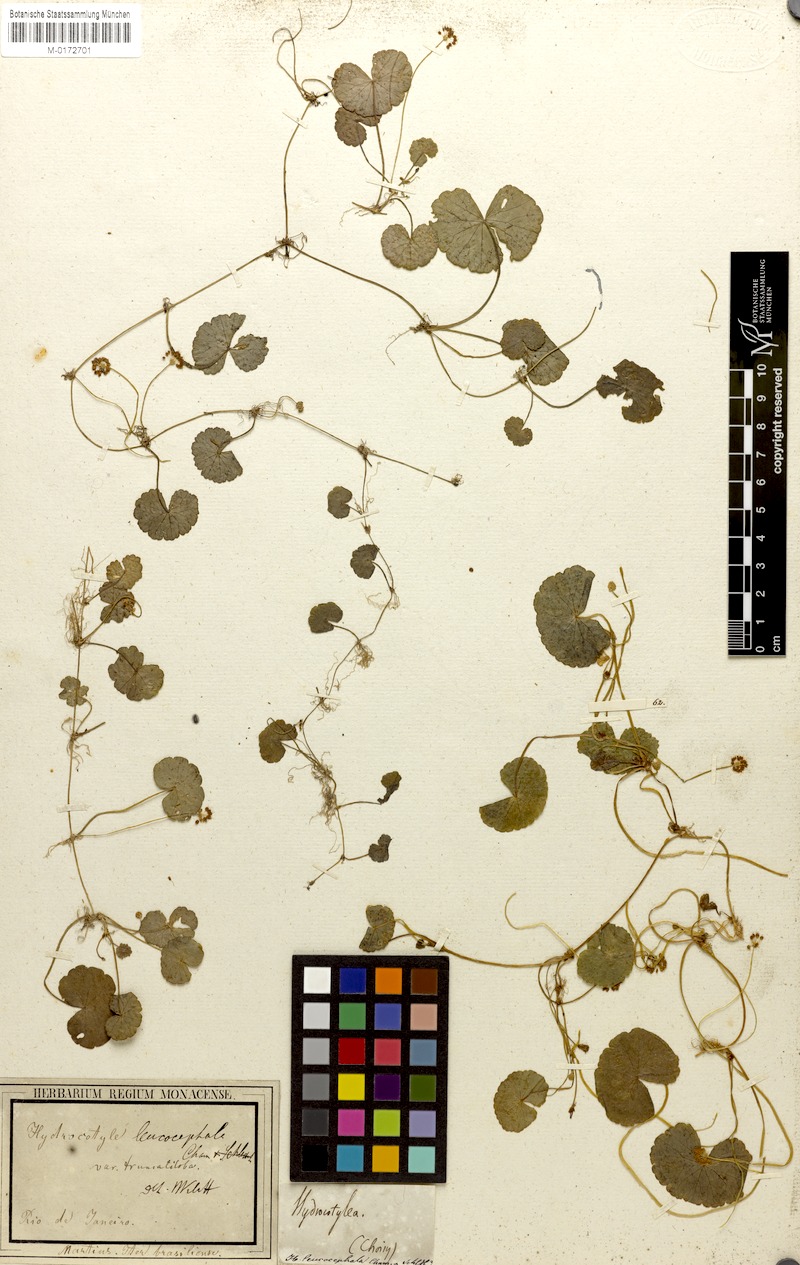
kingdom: Plantae
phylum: Tracheophyta
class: Magnoliopsida
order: Apiales
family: Araliaceae
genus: Hydrocotyle
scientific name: Hydrocotyle leucocephala
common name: Brazilian pennywort
